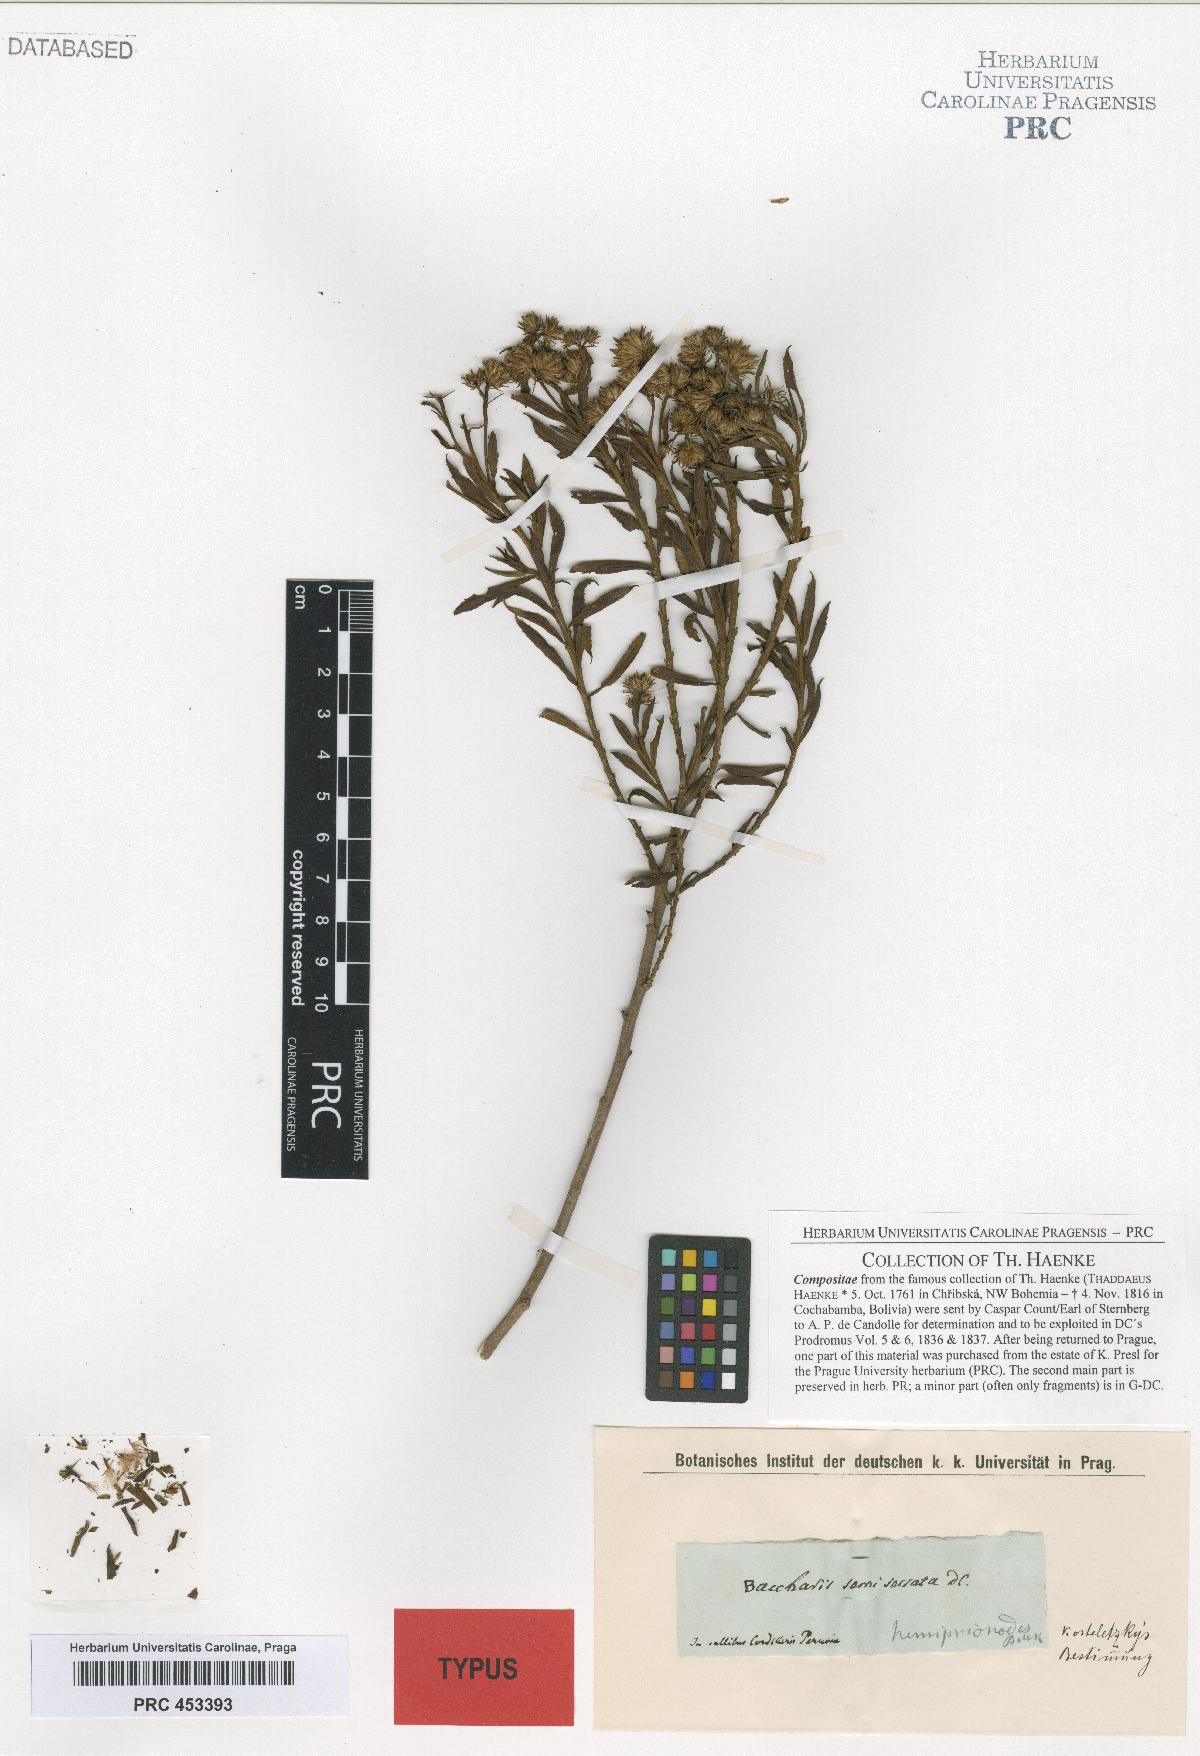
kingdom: Plantae
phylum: Tracheophyta
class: Magnoliopsida
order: Asterales
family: Asteraceae
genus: Baccharis
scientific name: Baccharis gnidiifolia
